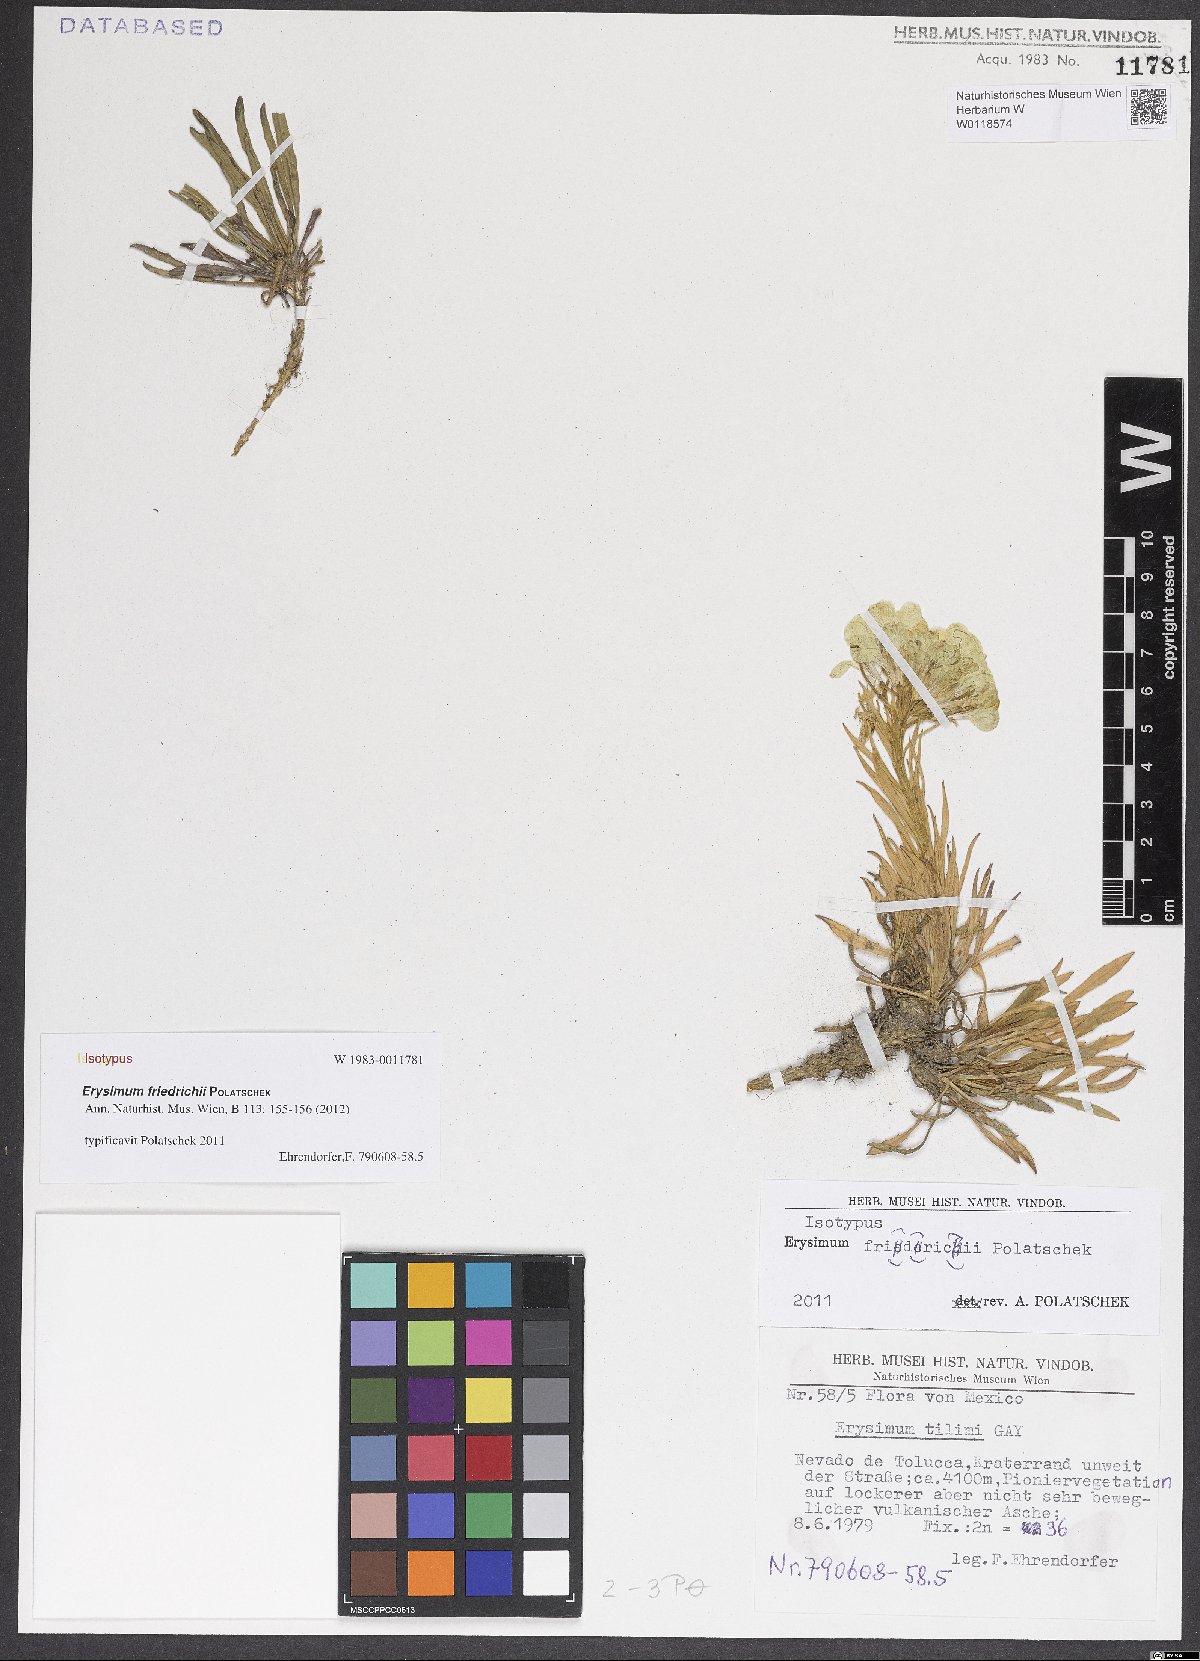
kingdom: Plantae
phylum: Tracheophyta
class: Magnoliopsida
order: Brassicales
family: Brassicaceae
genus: Erysimum
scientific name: Erysimum friedrichii
